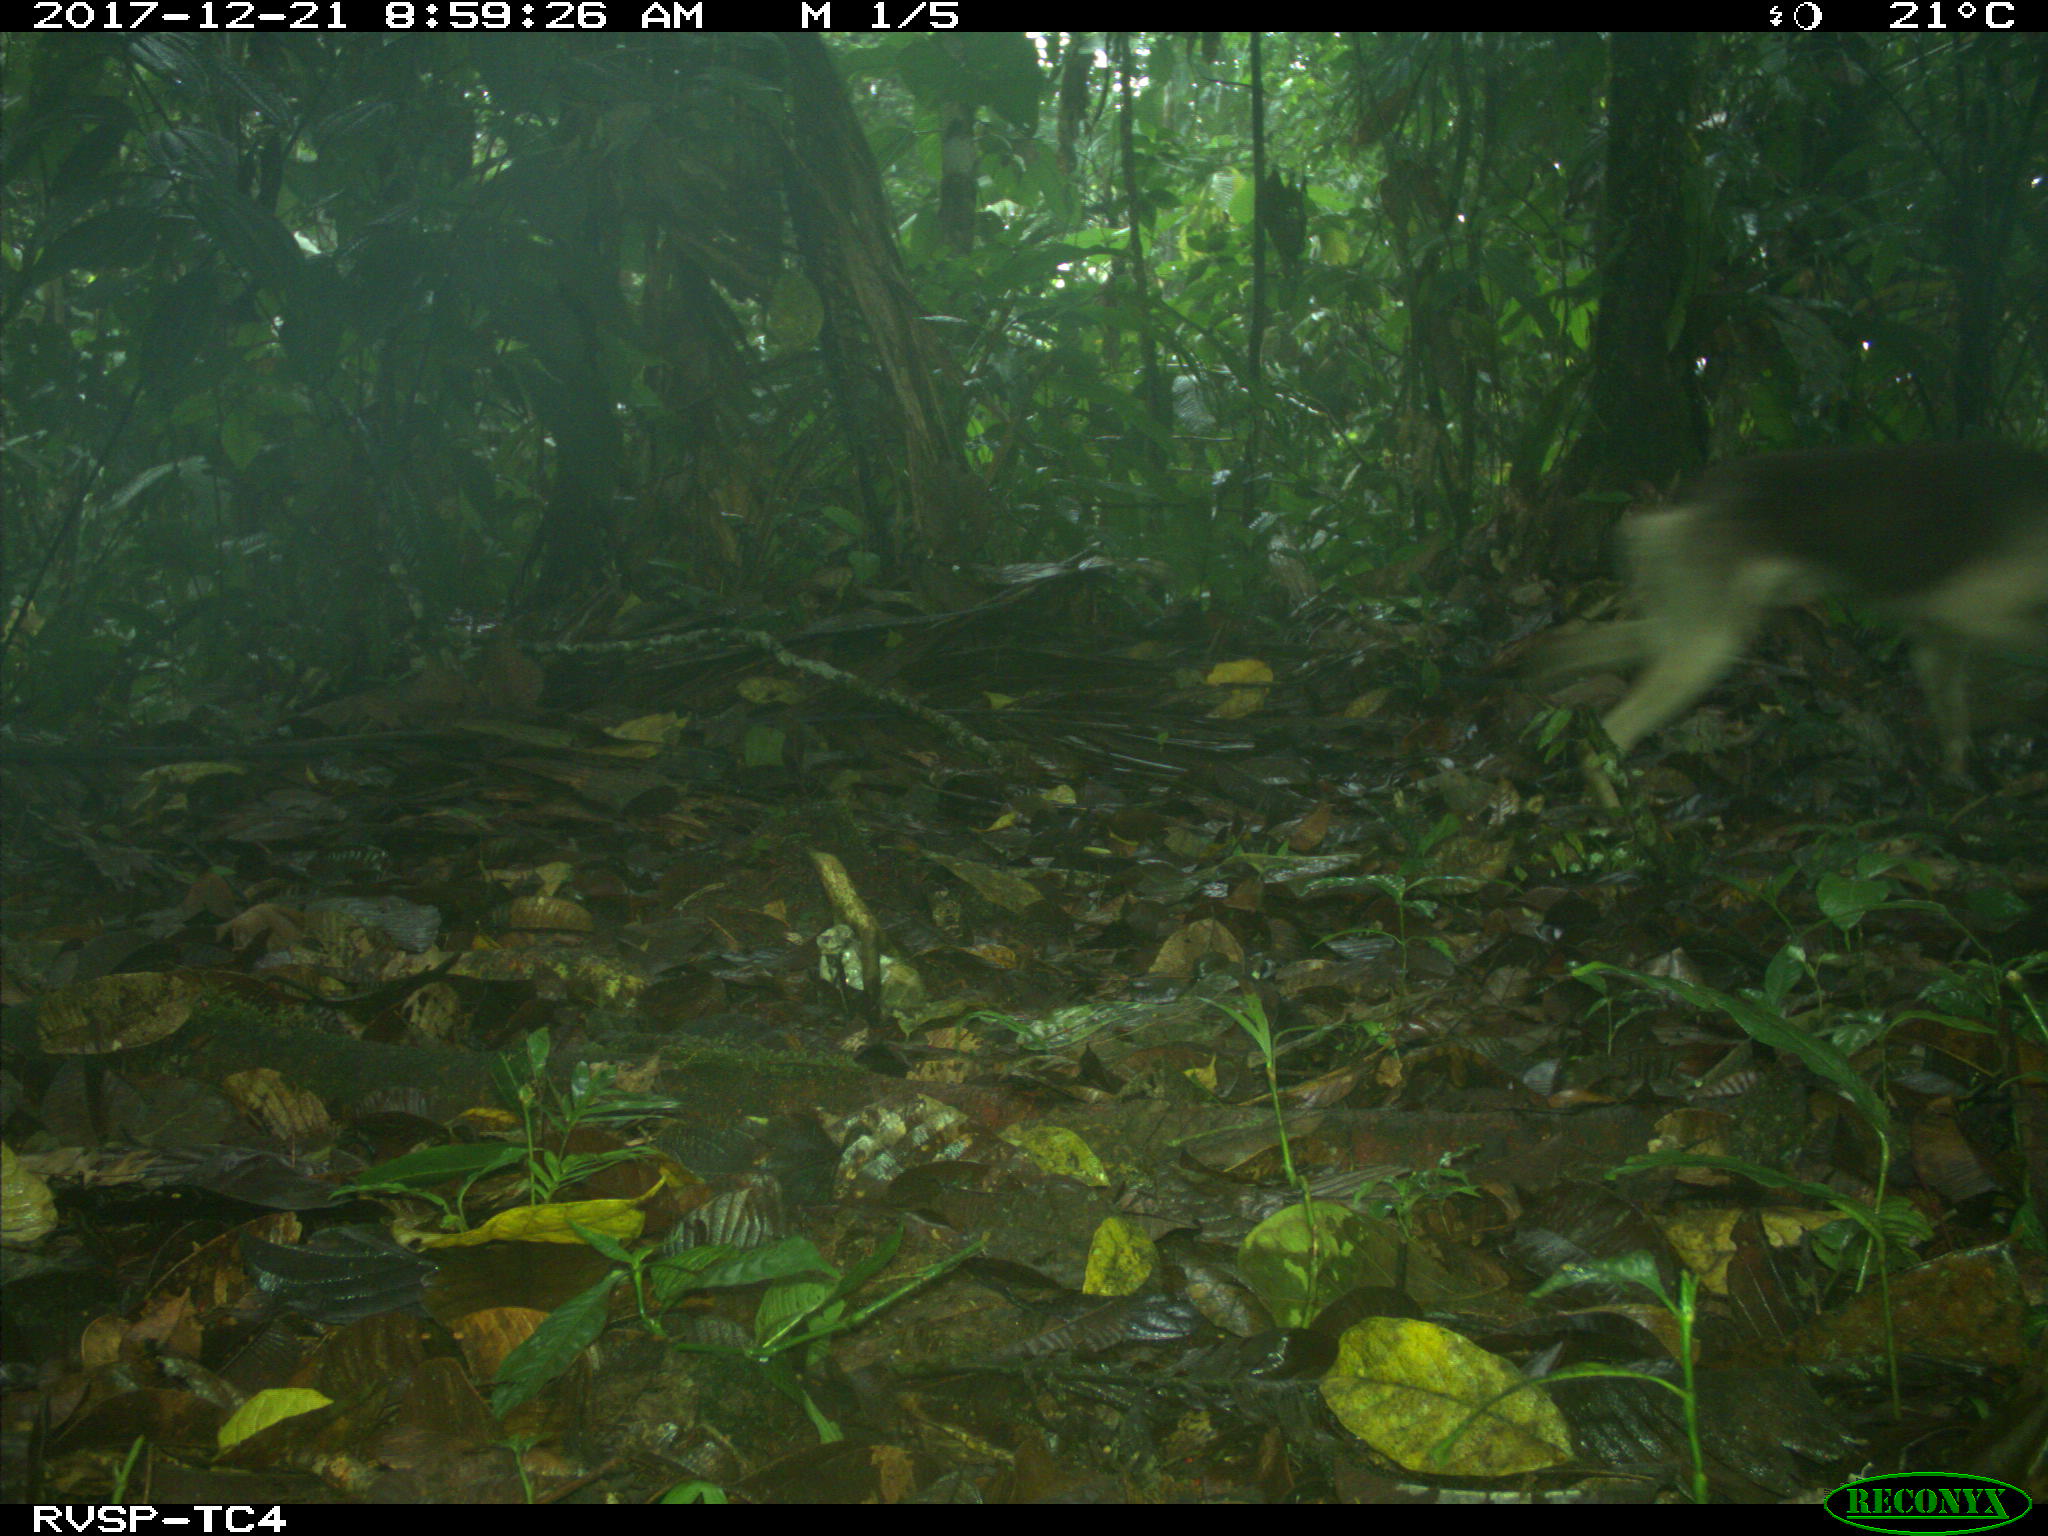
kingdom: Animalia
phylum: Chordata
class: Mammalia
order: Carnivora
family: Canidae
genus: Canis
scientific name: Canis lupus
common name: Gray wolf
